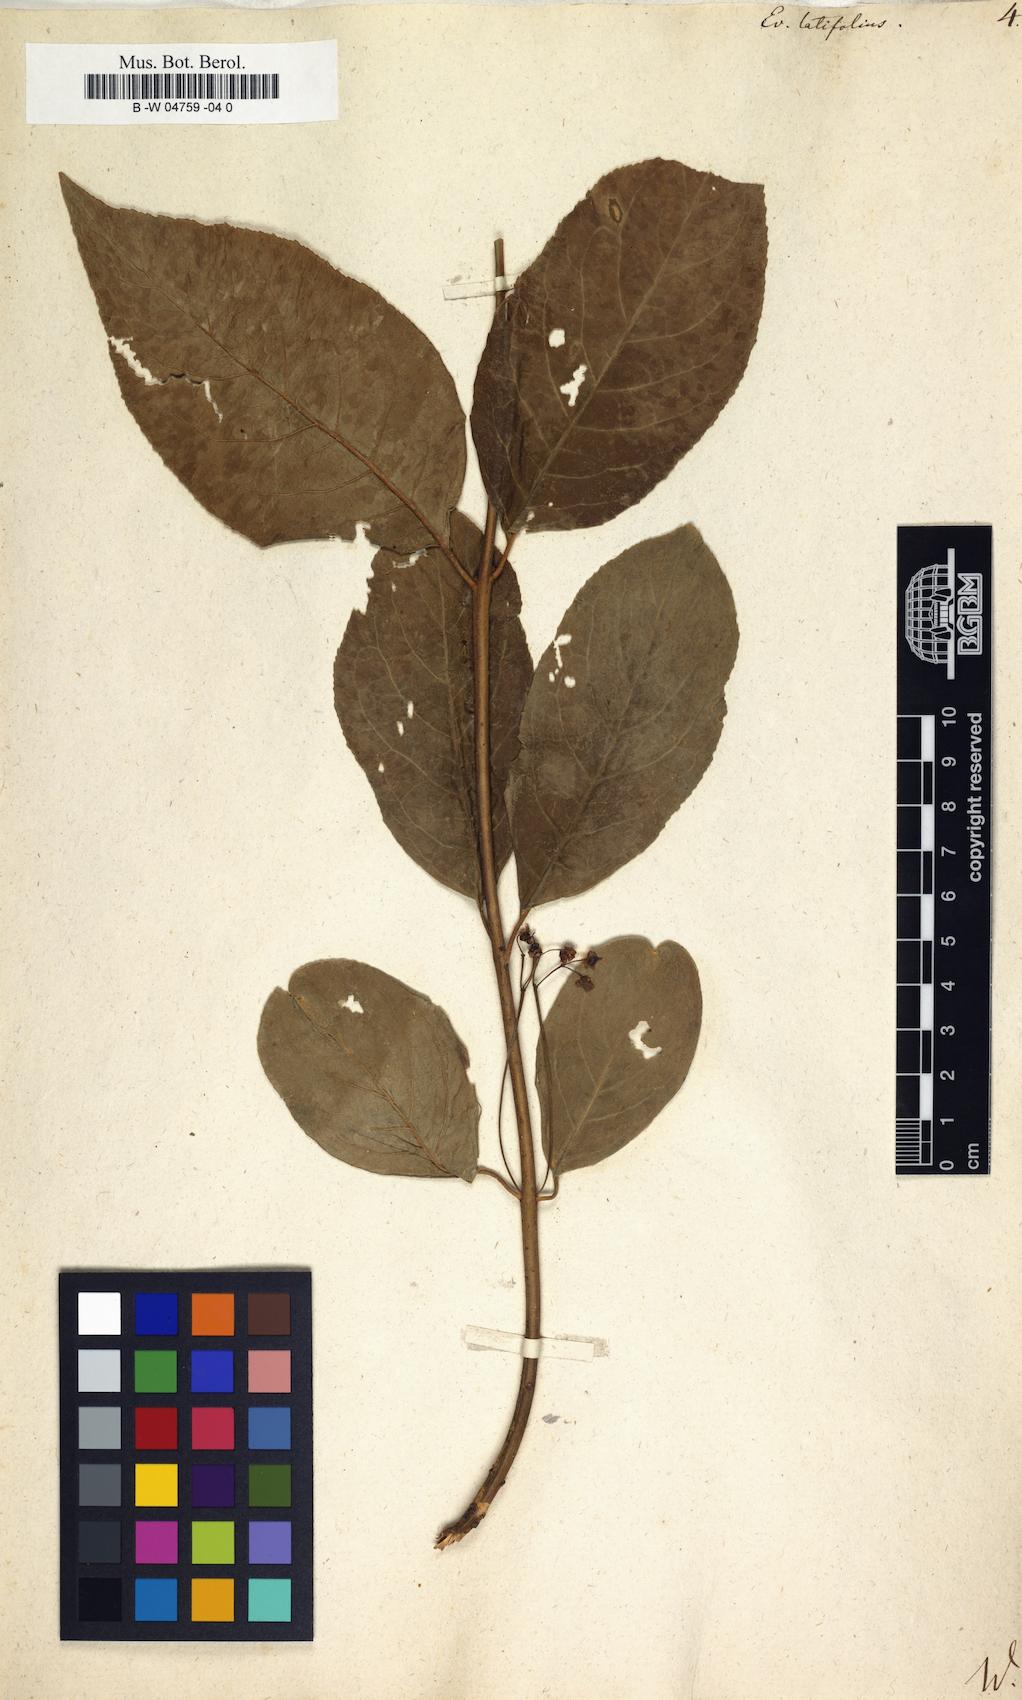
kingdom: Plantae
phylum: Tracheophyta
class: Magnoliopsida
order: Celastrales
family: Celastraceae
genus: Euonymus
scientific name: Euonymus latifolius
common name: Large-leaved spindle
